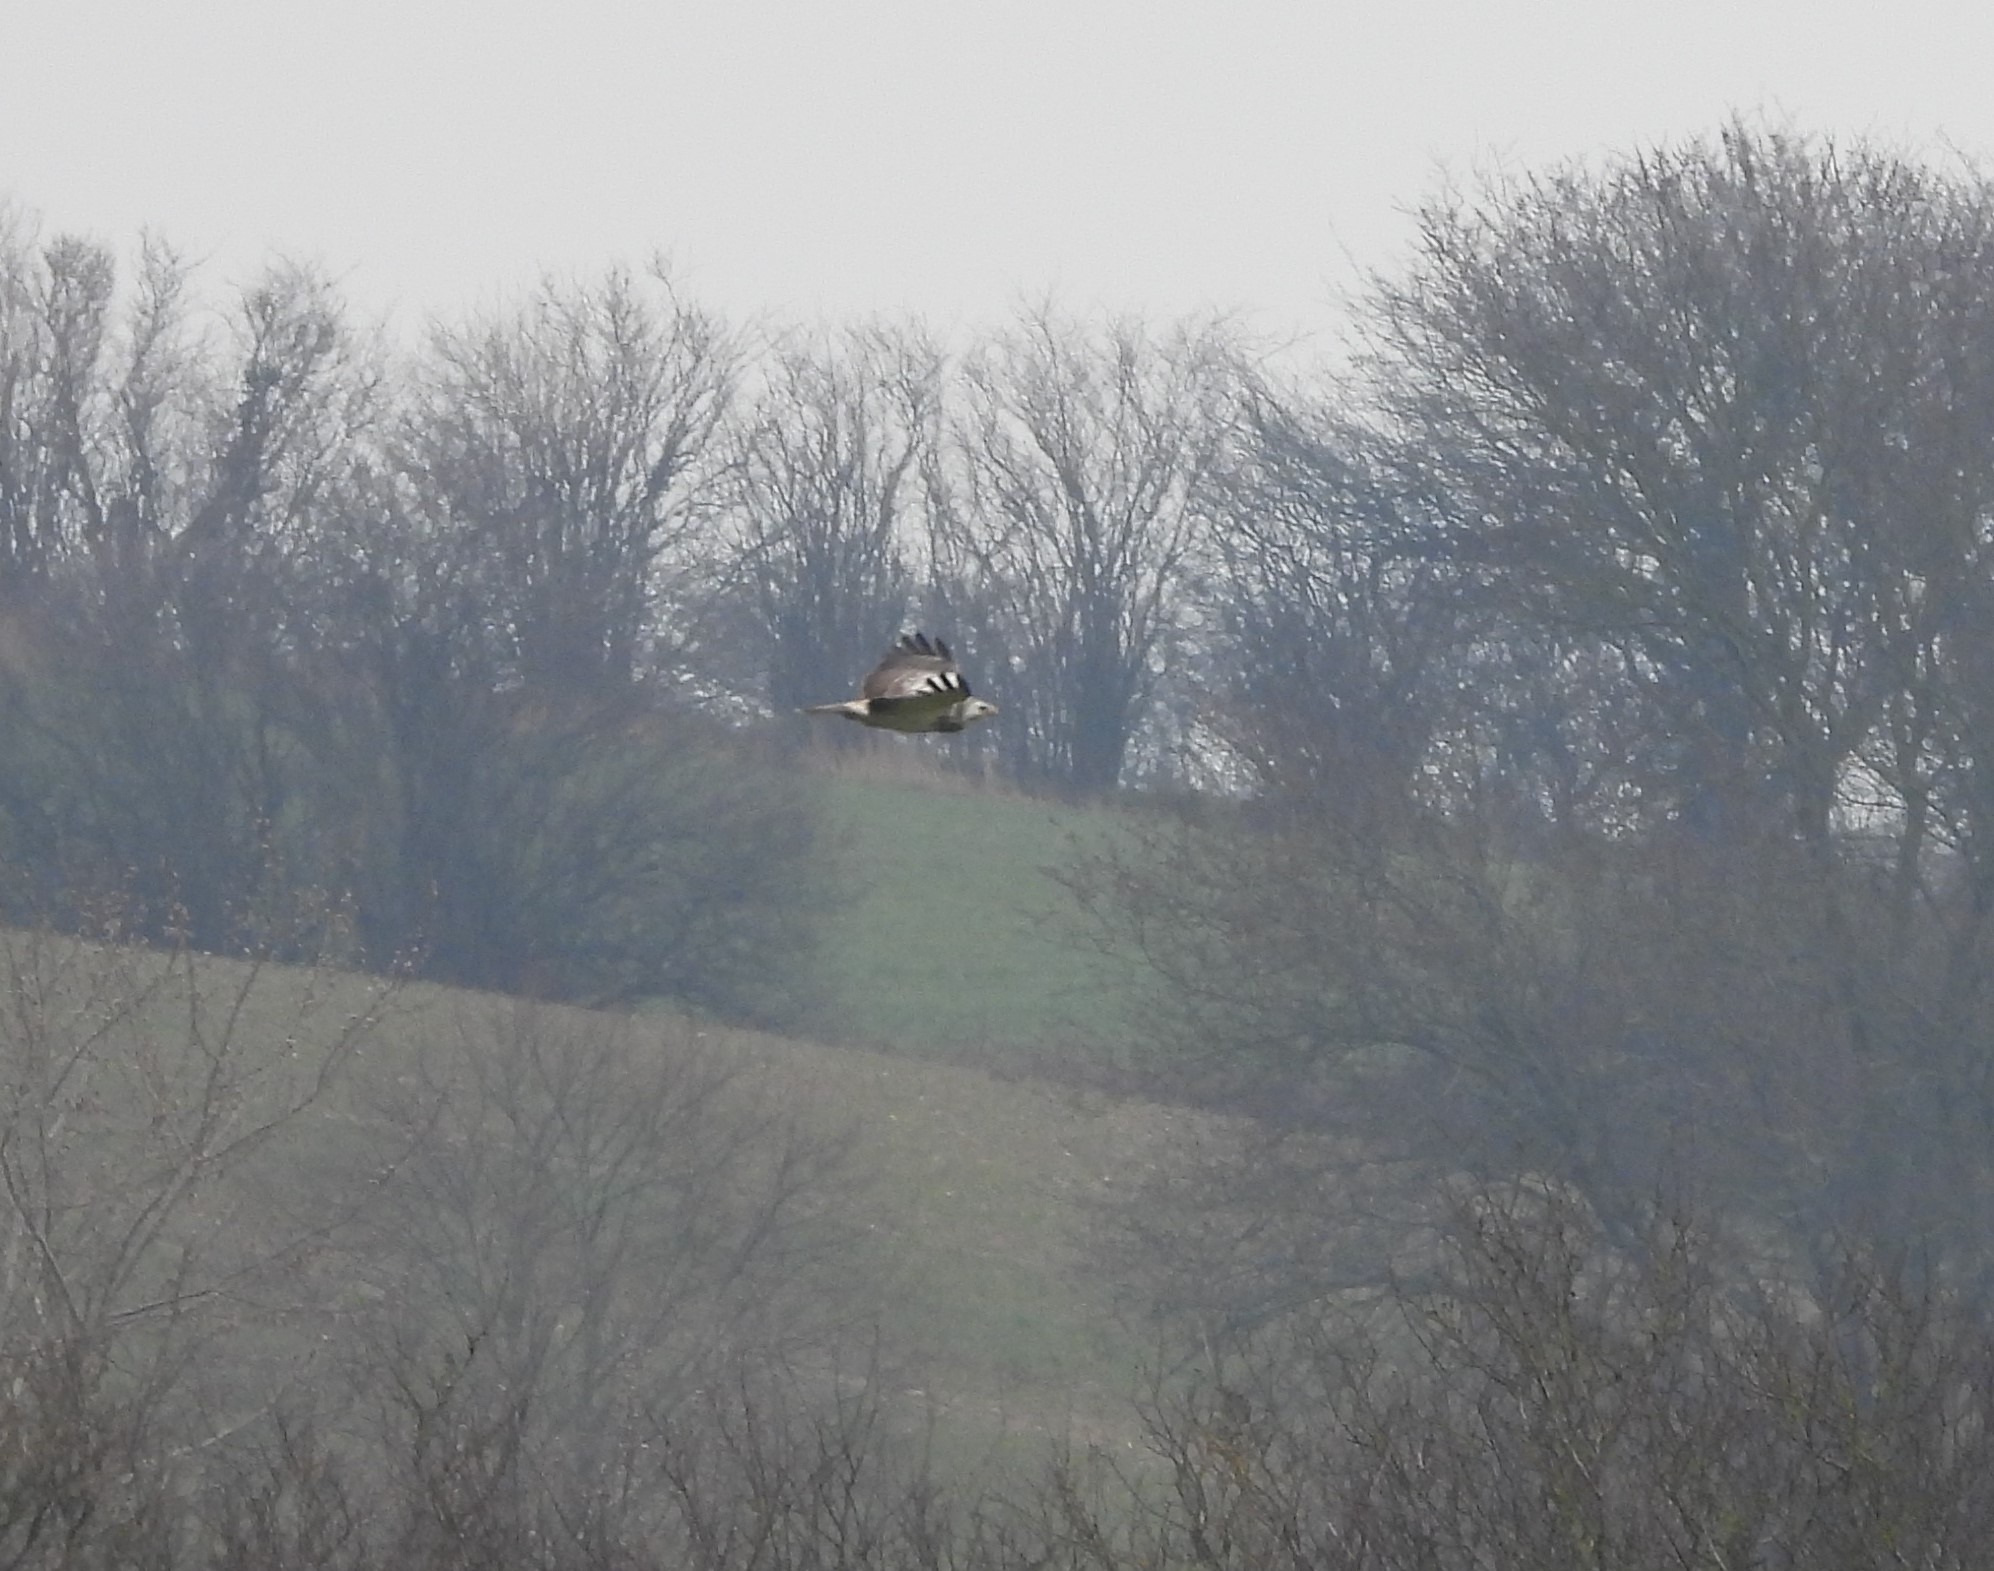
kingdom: Animalia
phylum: Chordata
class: Aves
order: Accipitriformes
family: Accipitridae
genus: Buteo
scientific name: Buteo buteo
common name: Musvåge
